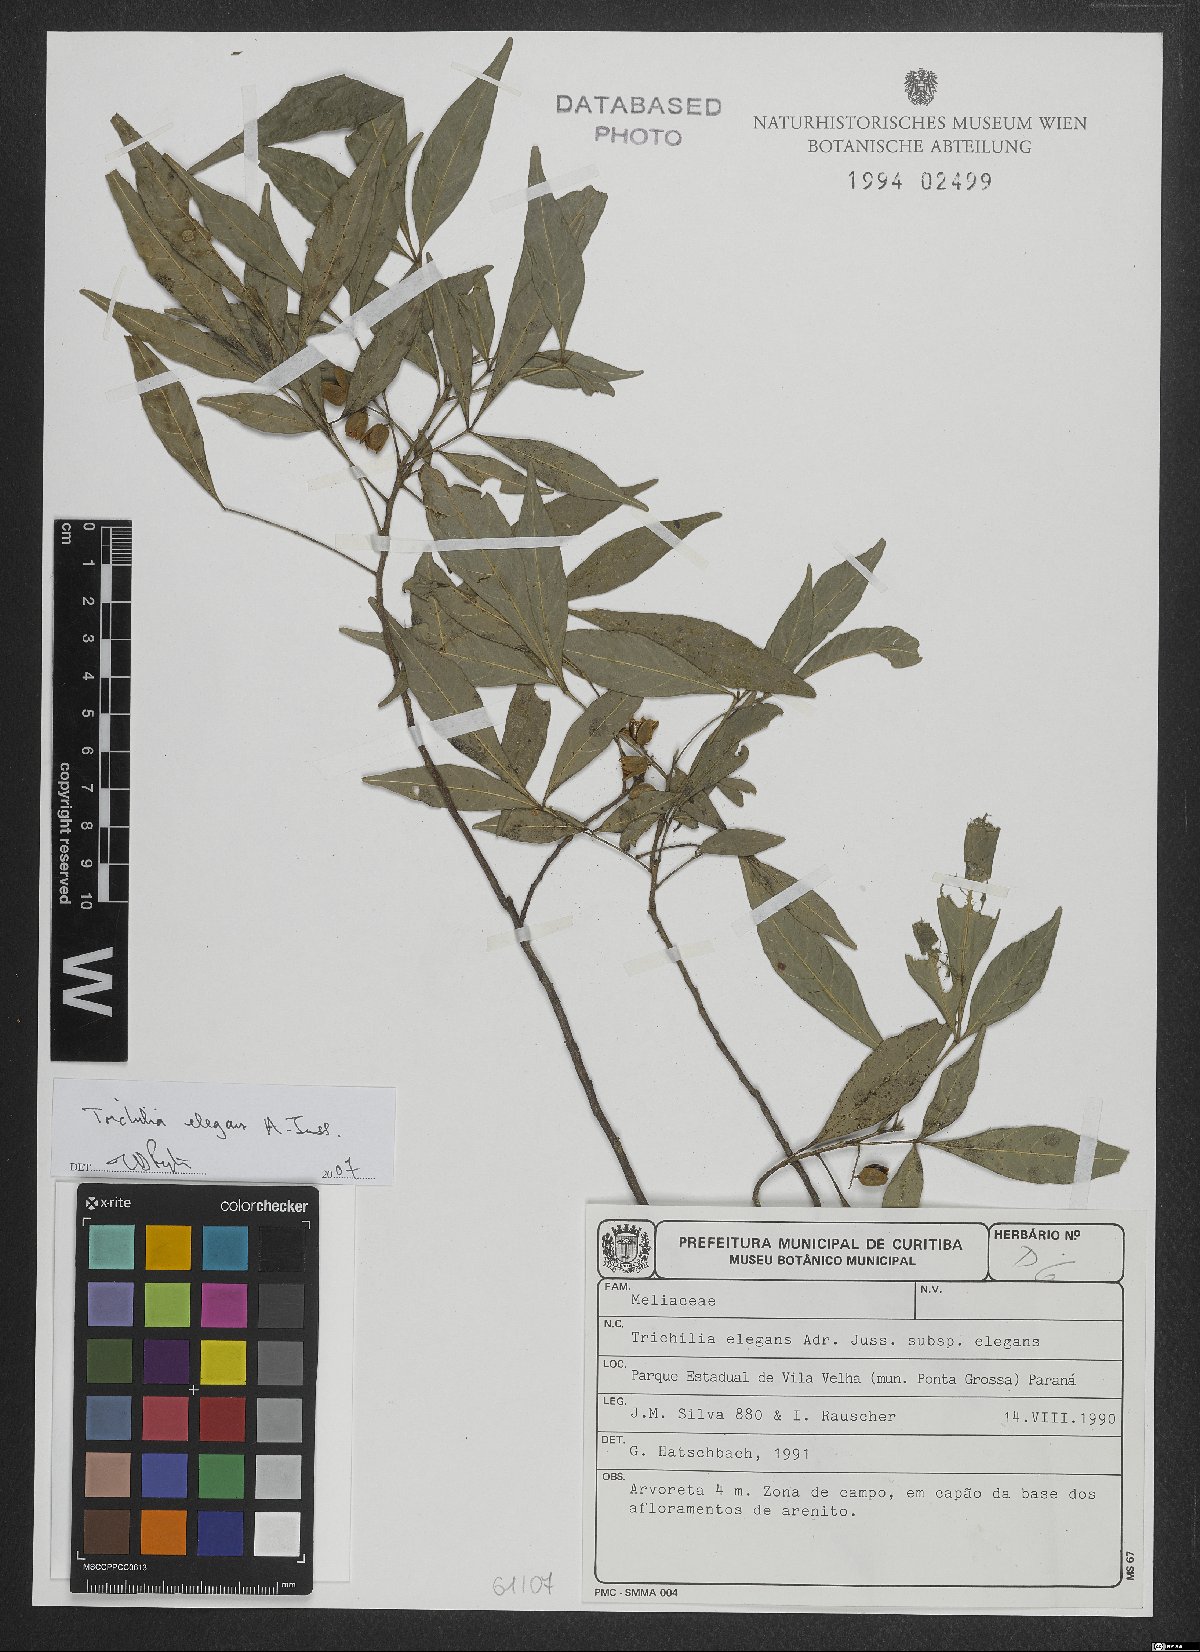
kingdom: Plantae
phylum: Tracheophyta
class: Magnoliopsida
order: Sapindales
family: Meliaceae
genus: Trichilia
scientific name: Trichilia elegans
